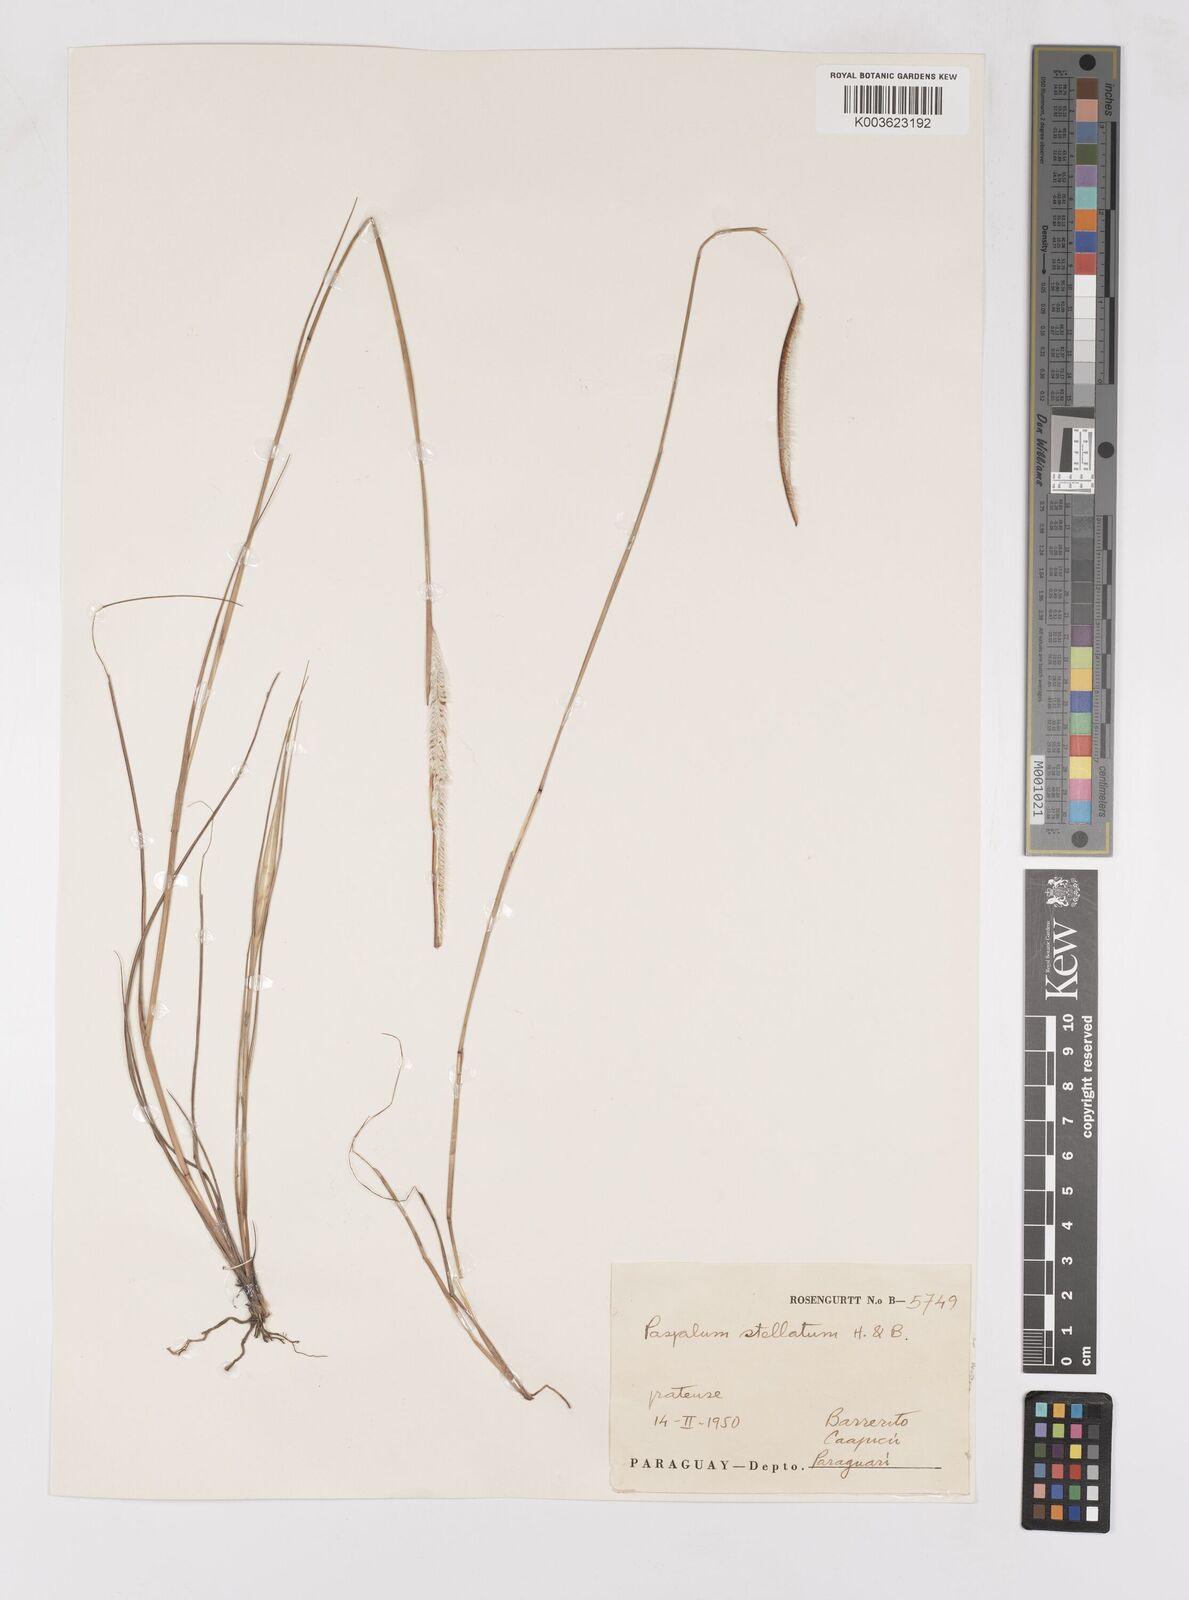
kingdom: Plantae
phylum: Tracheophyta
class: Liliopsida
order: Poales
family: Poaceae
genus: Paspalum
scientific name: Paspalum stellatum
